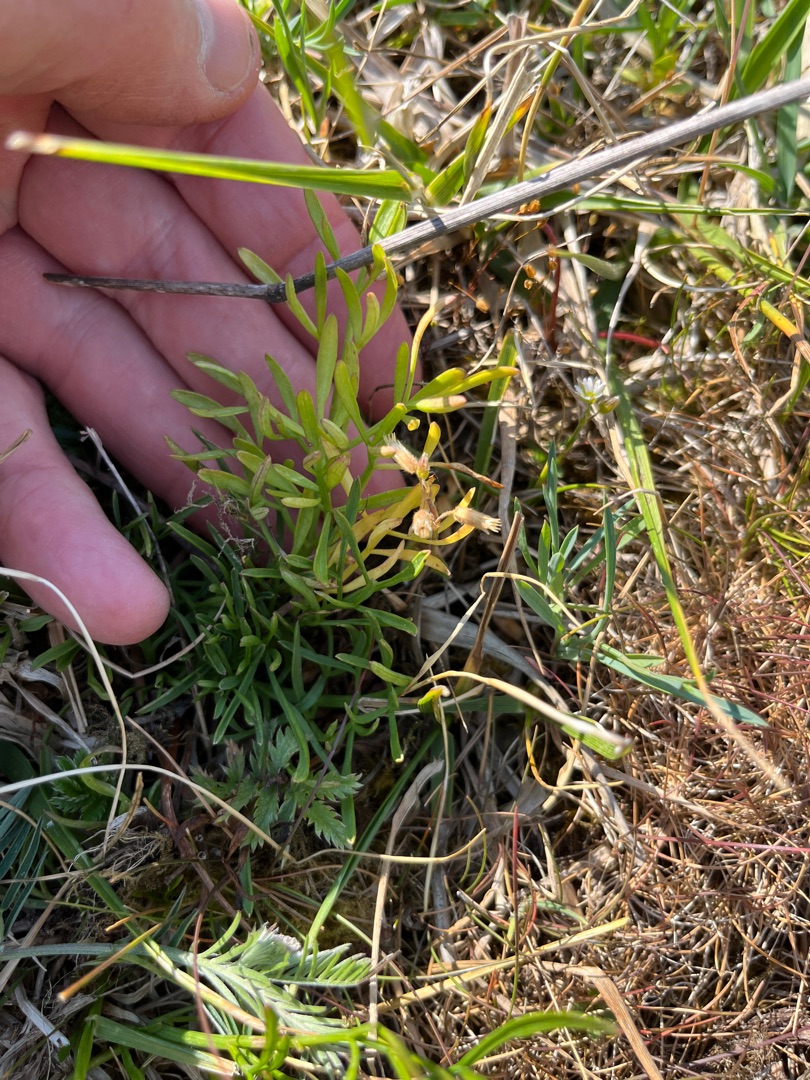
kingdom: Plantae
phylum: Tracheophyta
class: Magnoliopsida
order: Apiales
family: Apiaceae
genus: Oenanthe
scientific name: Oenanthe lachenalii
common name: Eng-klaseskærm
